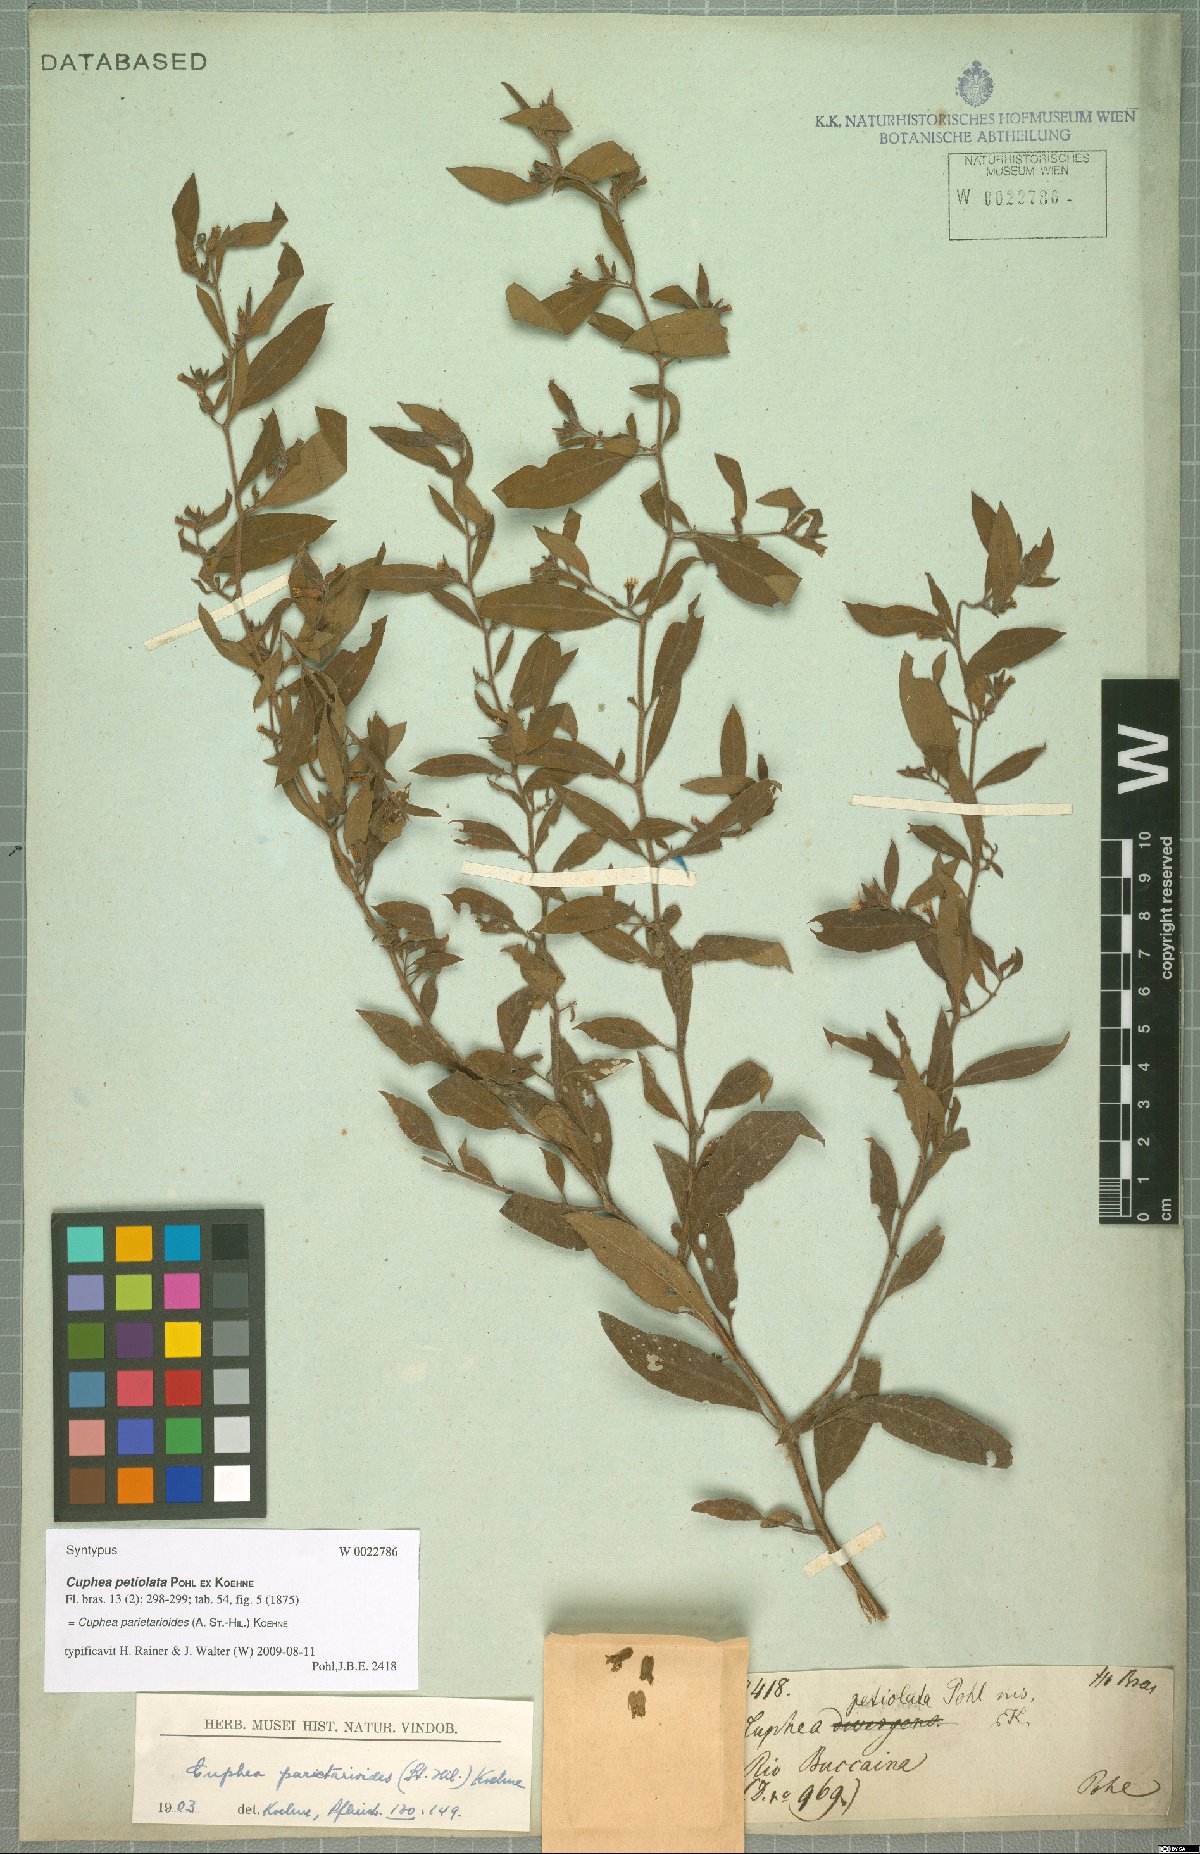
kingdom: Plantae
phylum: Tracheophyta
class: Magnoliopsida
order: Myrtales
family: Lythraceae
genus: Cuphea
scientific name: Cuphea
